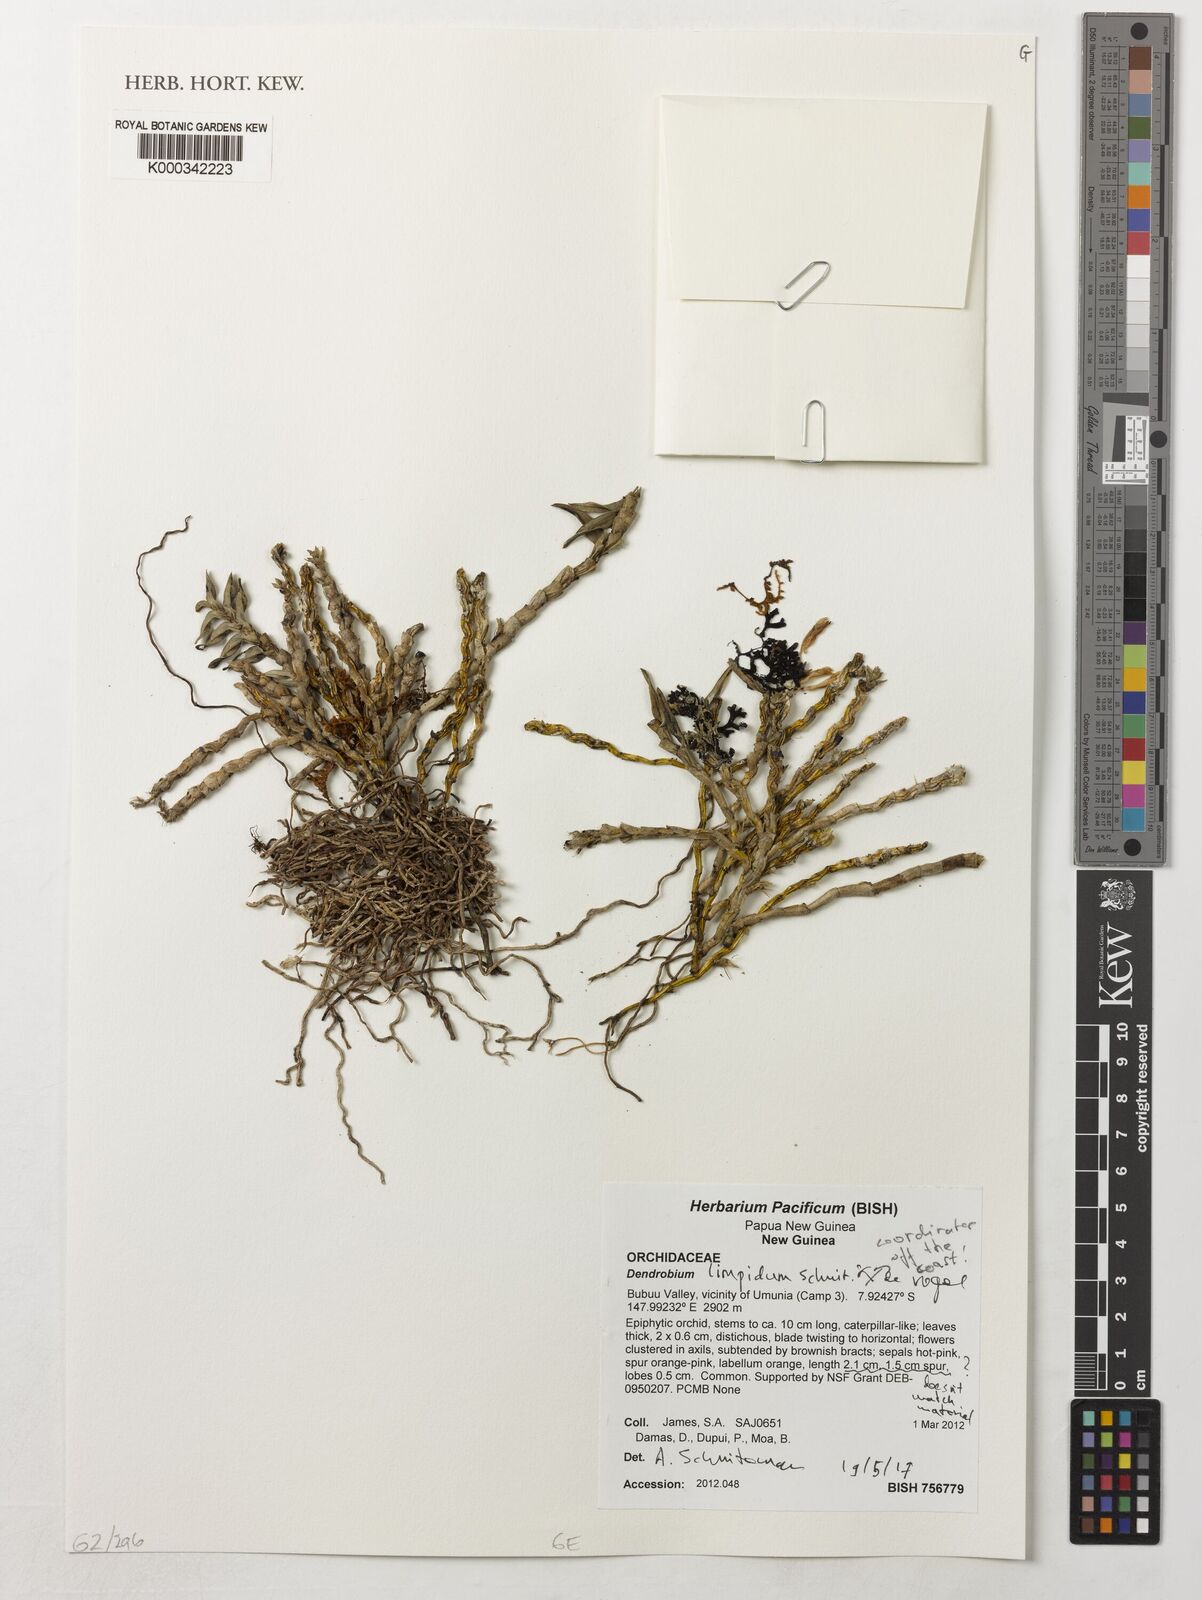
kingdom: Plantae
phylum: Tracheophyta
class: Liliopsida
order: Asparagales
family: Orchidaceae
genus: Dendrobium
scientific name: Dendrobium limpidum
